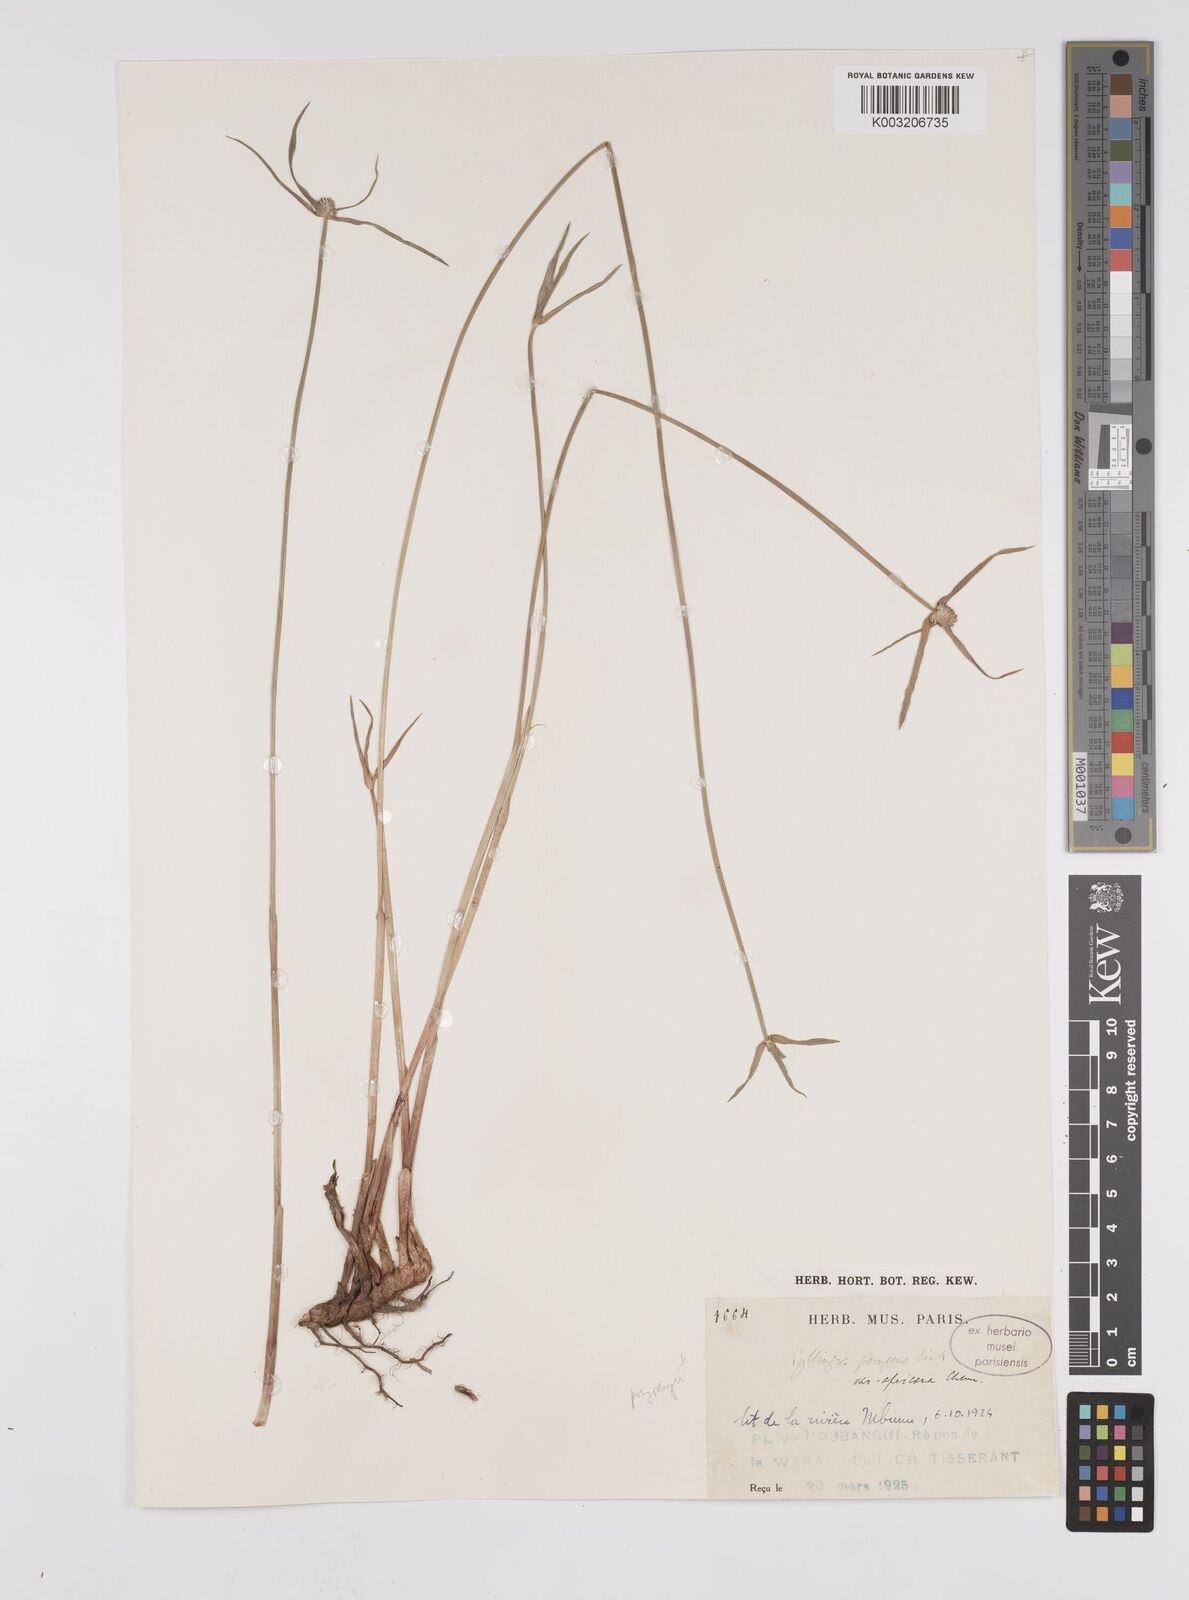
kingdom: Plantae
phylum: Tracheophyta
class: Liliopsida
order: Poales
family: Cyperaceae
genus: Cyperus
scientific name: Cyperus
